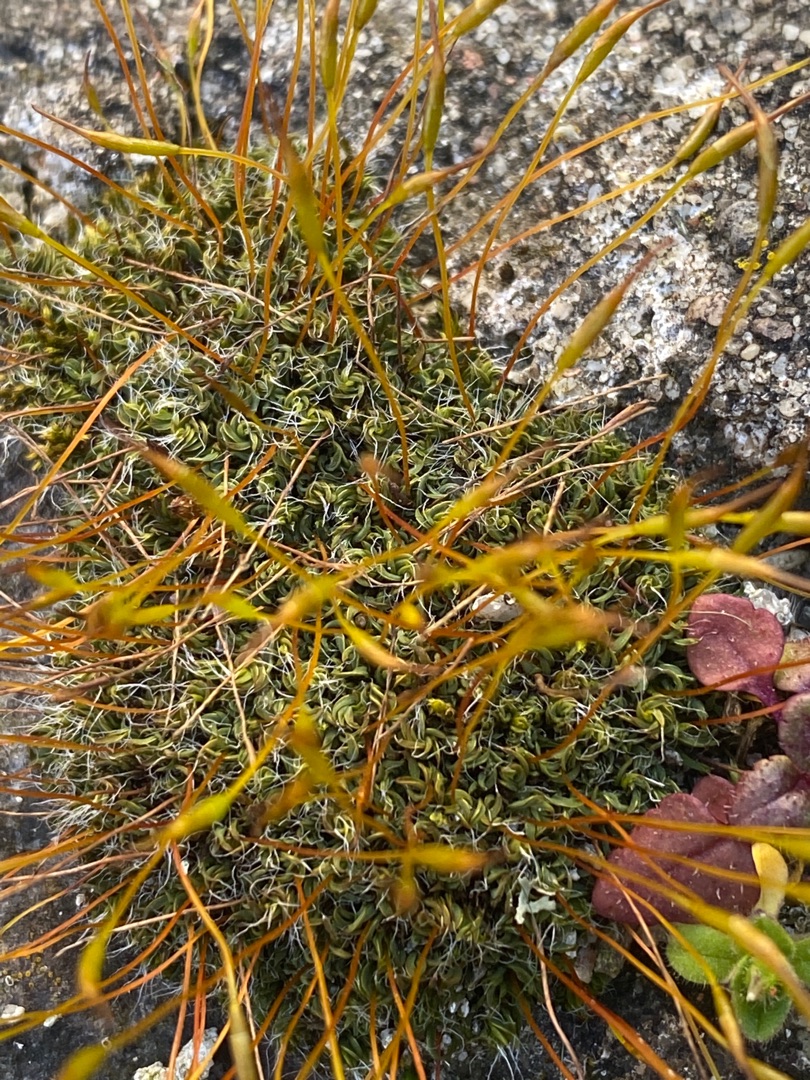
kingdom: Plantae
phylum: Bryophyta
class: Bryopsida
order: Pottiales
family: Pottiaceae
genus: Tortula
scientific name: Tortula muralis
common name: Mur-snotand
